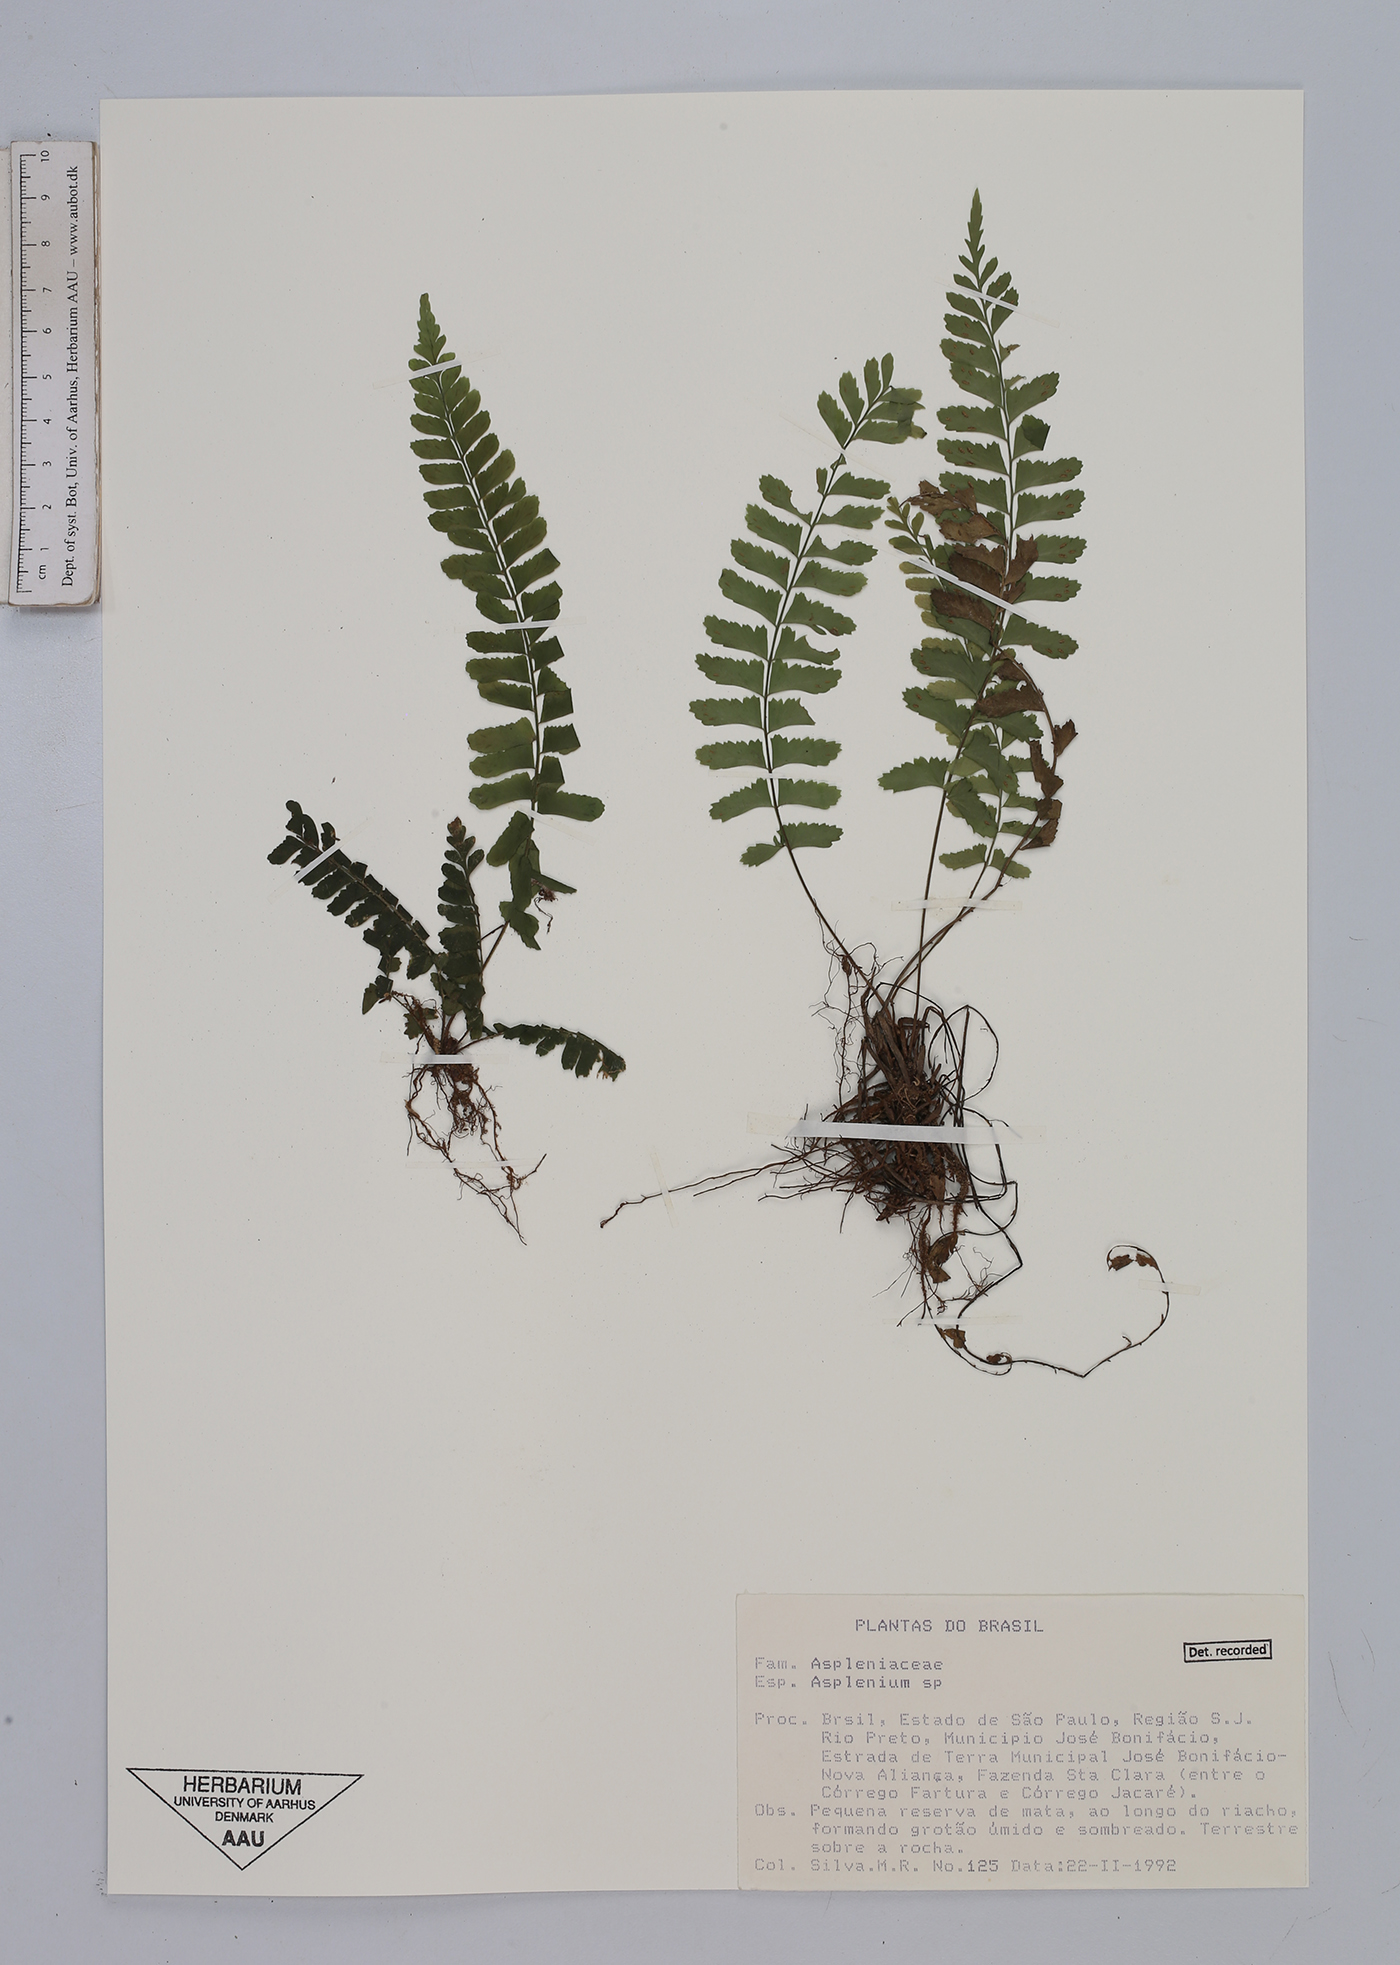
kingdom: Plantae
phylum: Tracheophyta
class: Polypodiopsida
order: Polypodiales
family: Aspleniaceae
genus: Asplenium
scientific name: Asplenium
